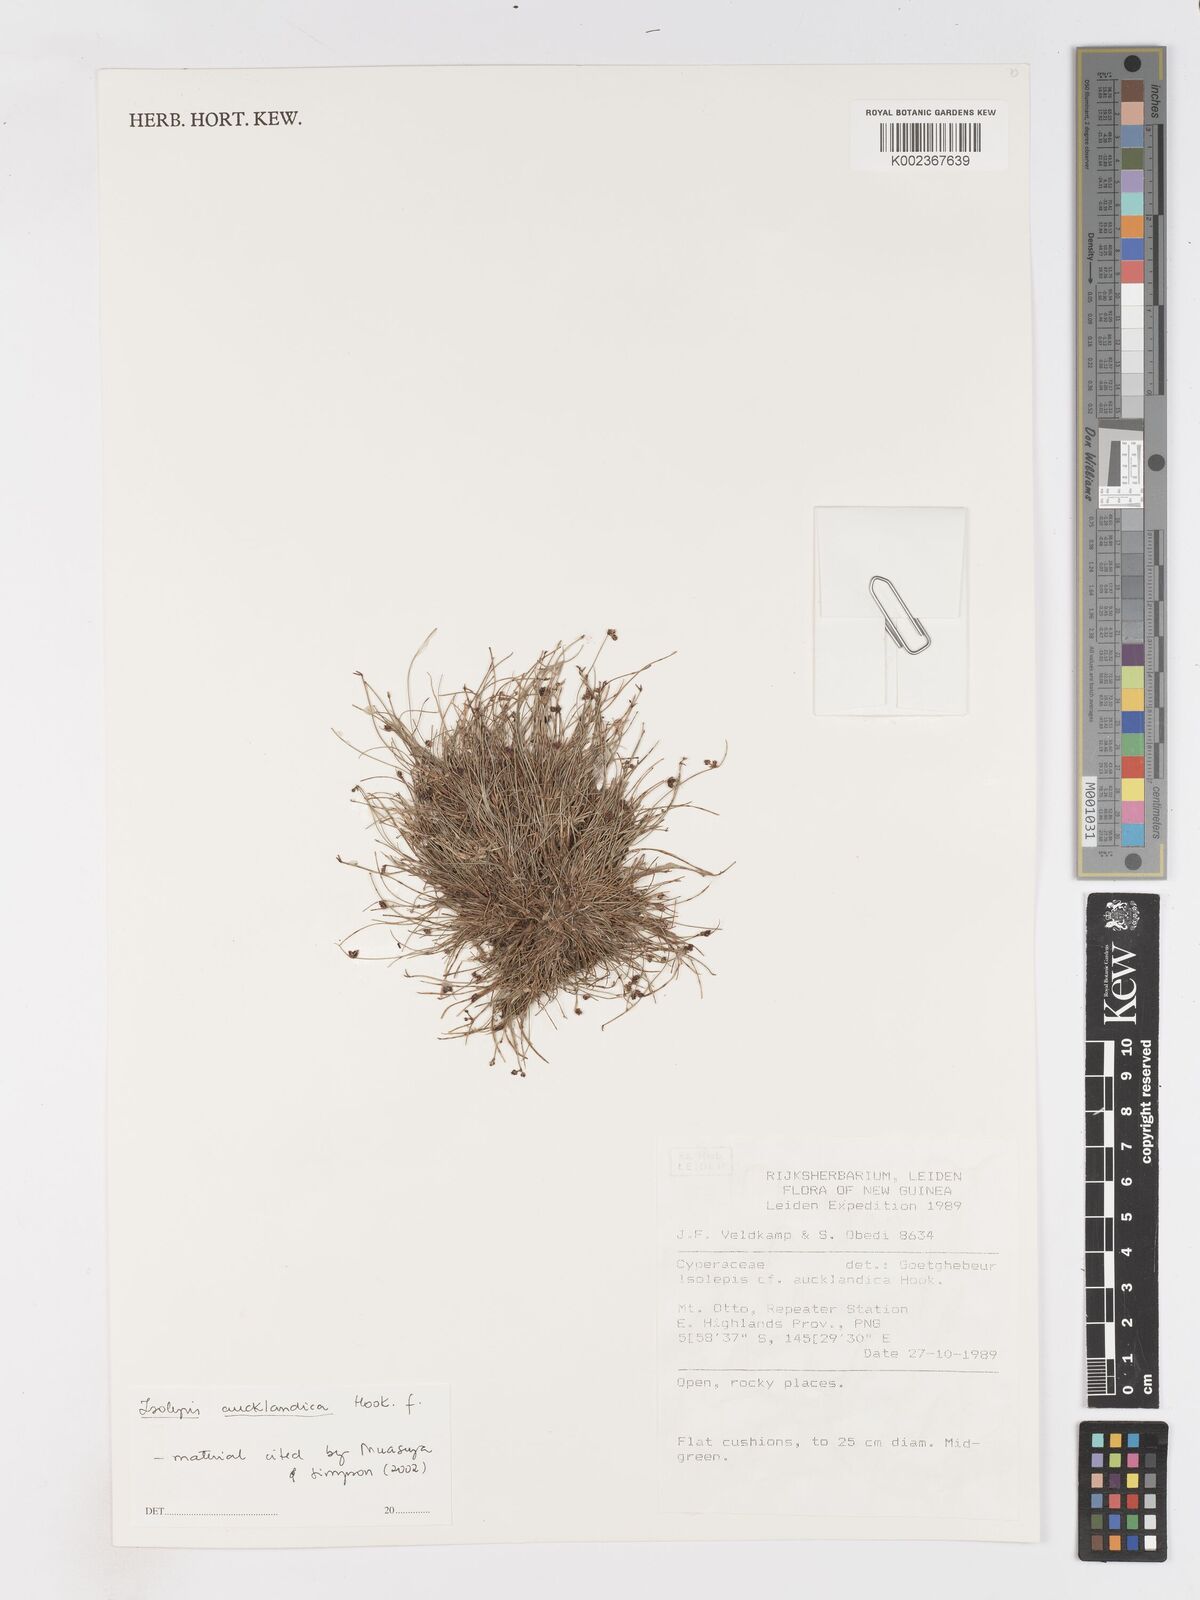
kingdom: Plantae
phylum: Tracheophyta
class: Liliopsida
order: Poales
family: Cyperaceae
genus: Isolepis
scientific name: Isolepis aucklandica
